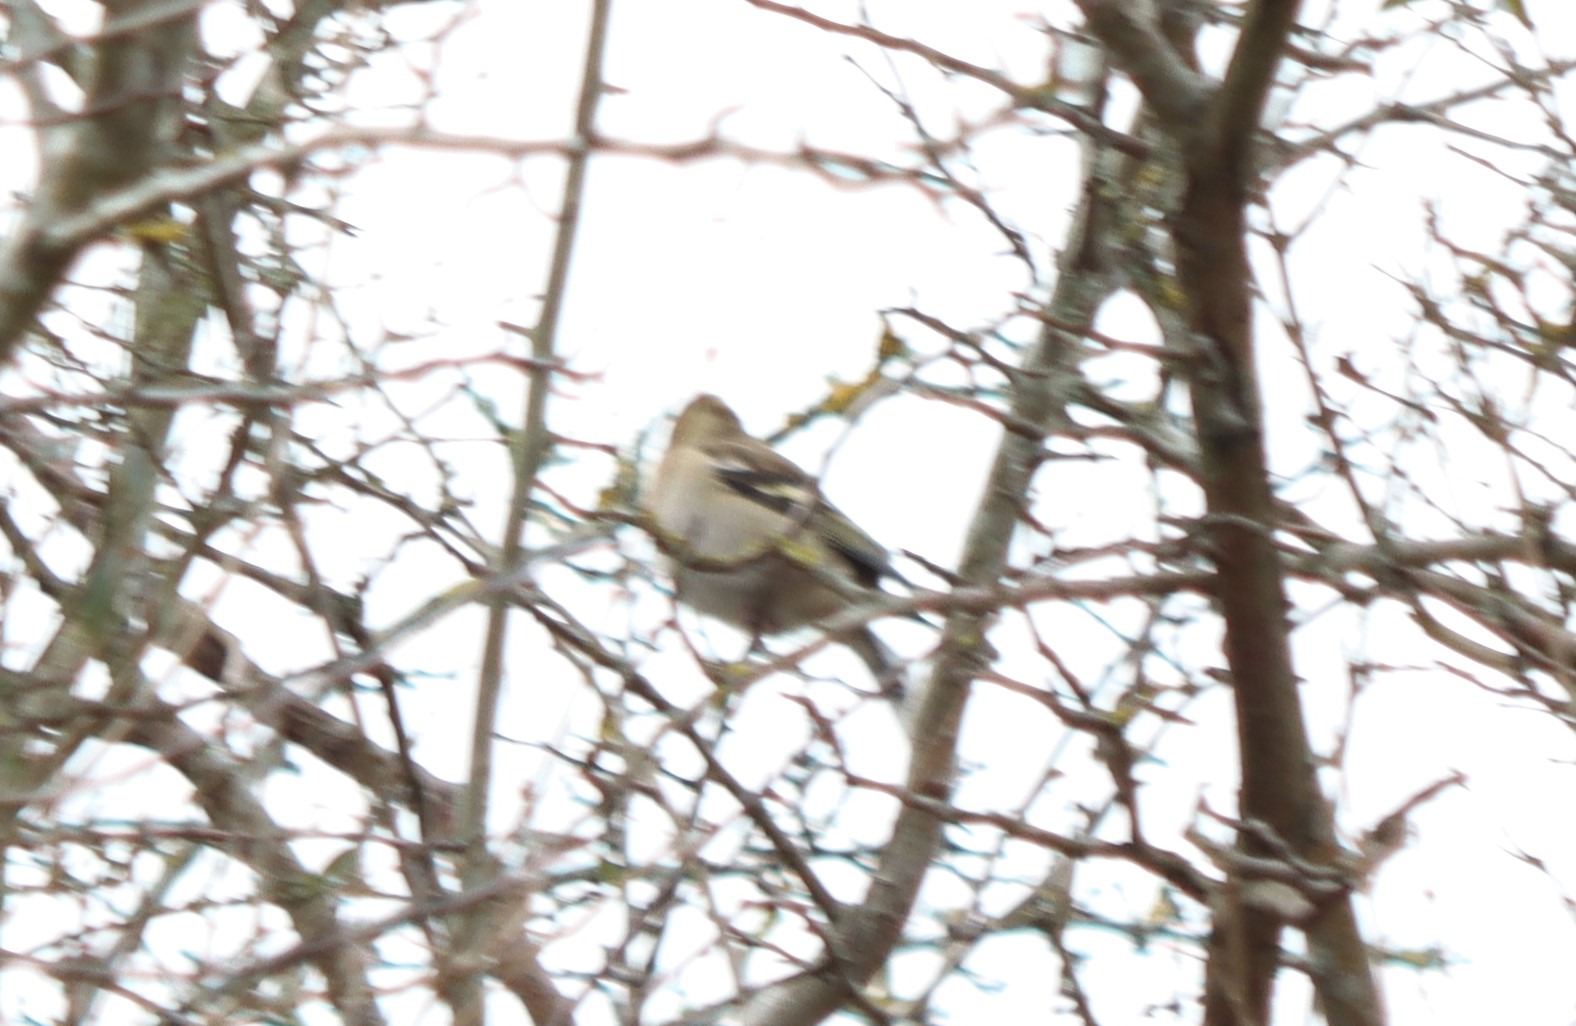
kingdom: Animalia
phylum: Chordata
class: Aves
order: Passeriformes
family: Fringillidae
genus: Fringilla
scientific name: Fringilla coelebs
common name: Bogfinke
